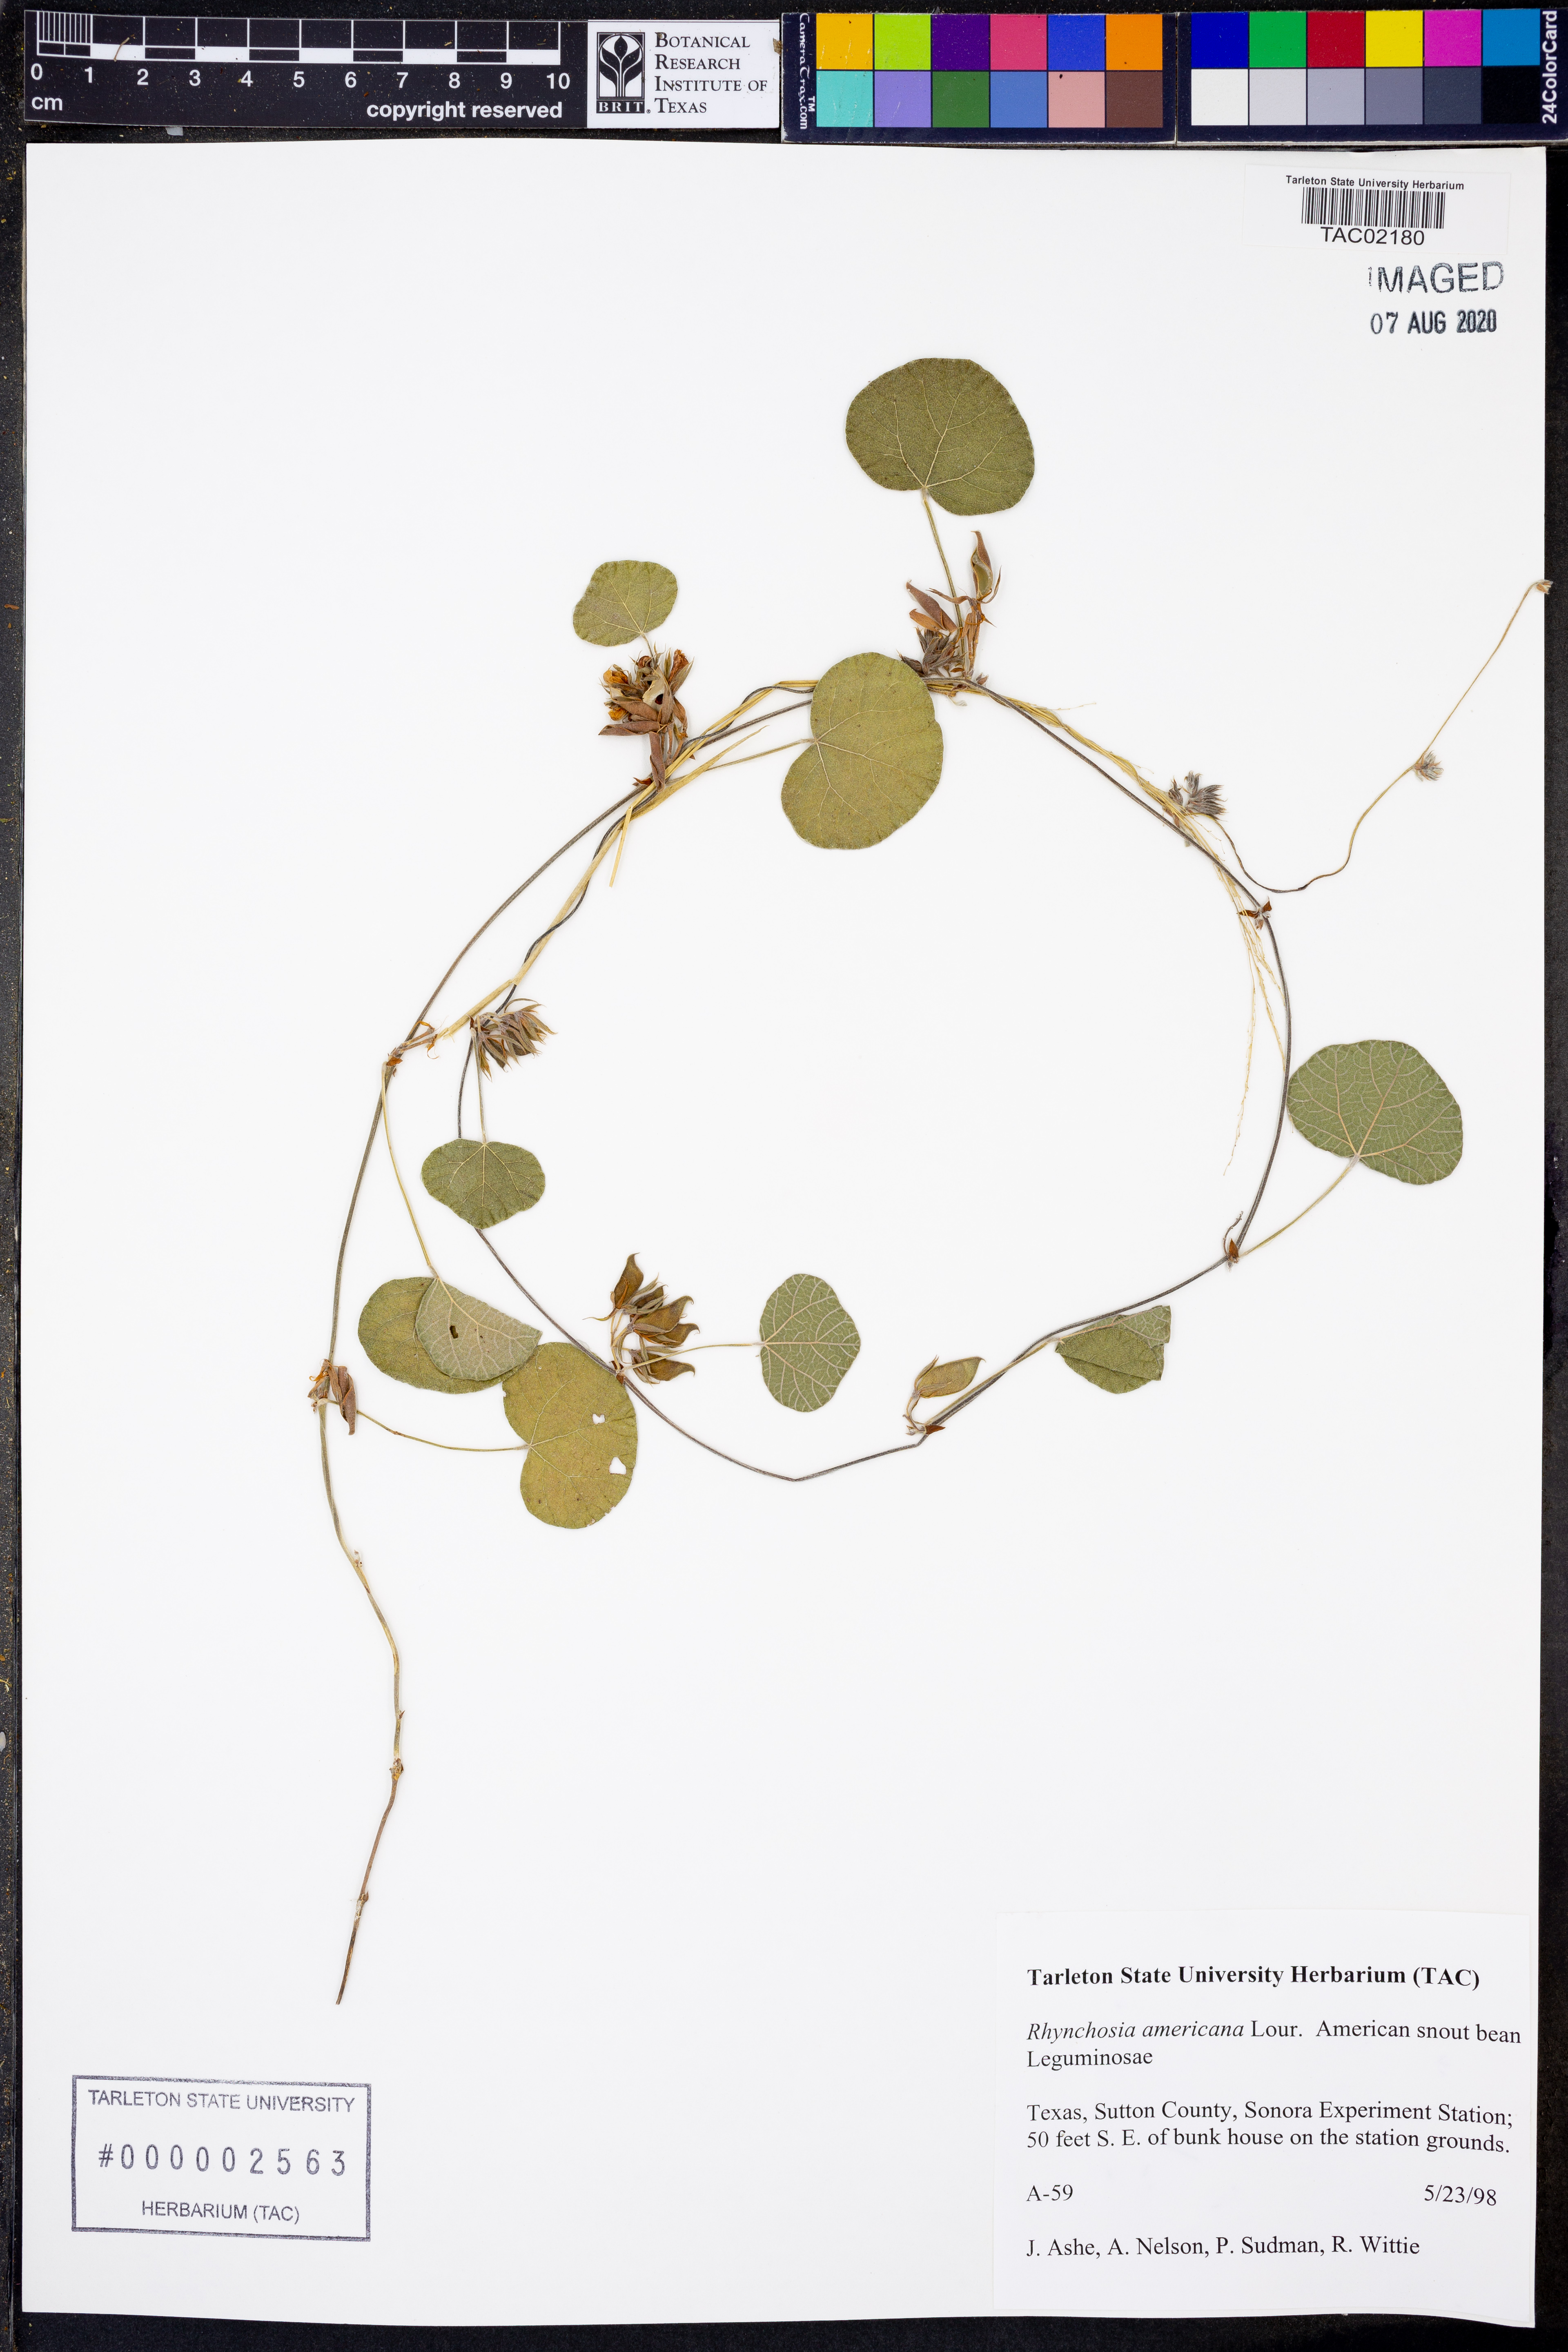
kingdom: Plantae
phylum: Tracheophyta
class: Magnoliopsida
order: Fabales
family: Fabaceae
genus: Rhynchosia
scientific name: Rhynchosia americana
